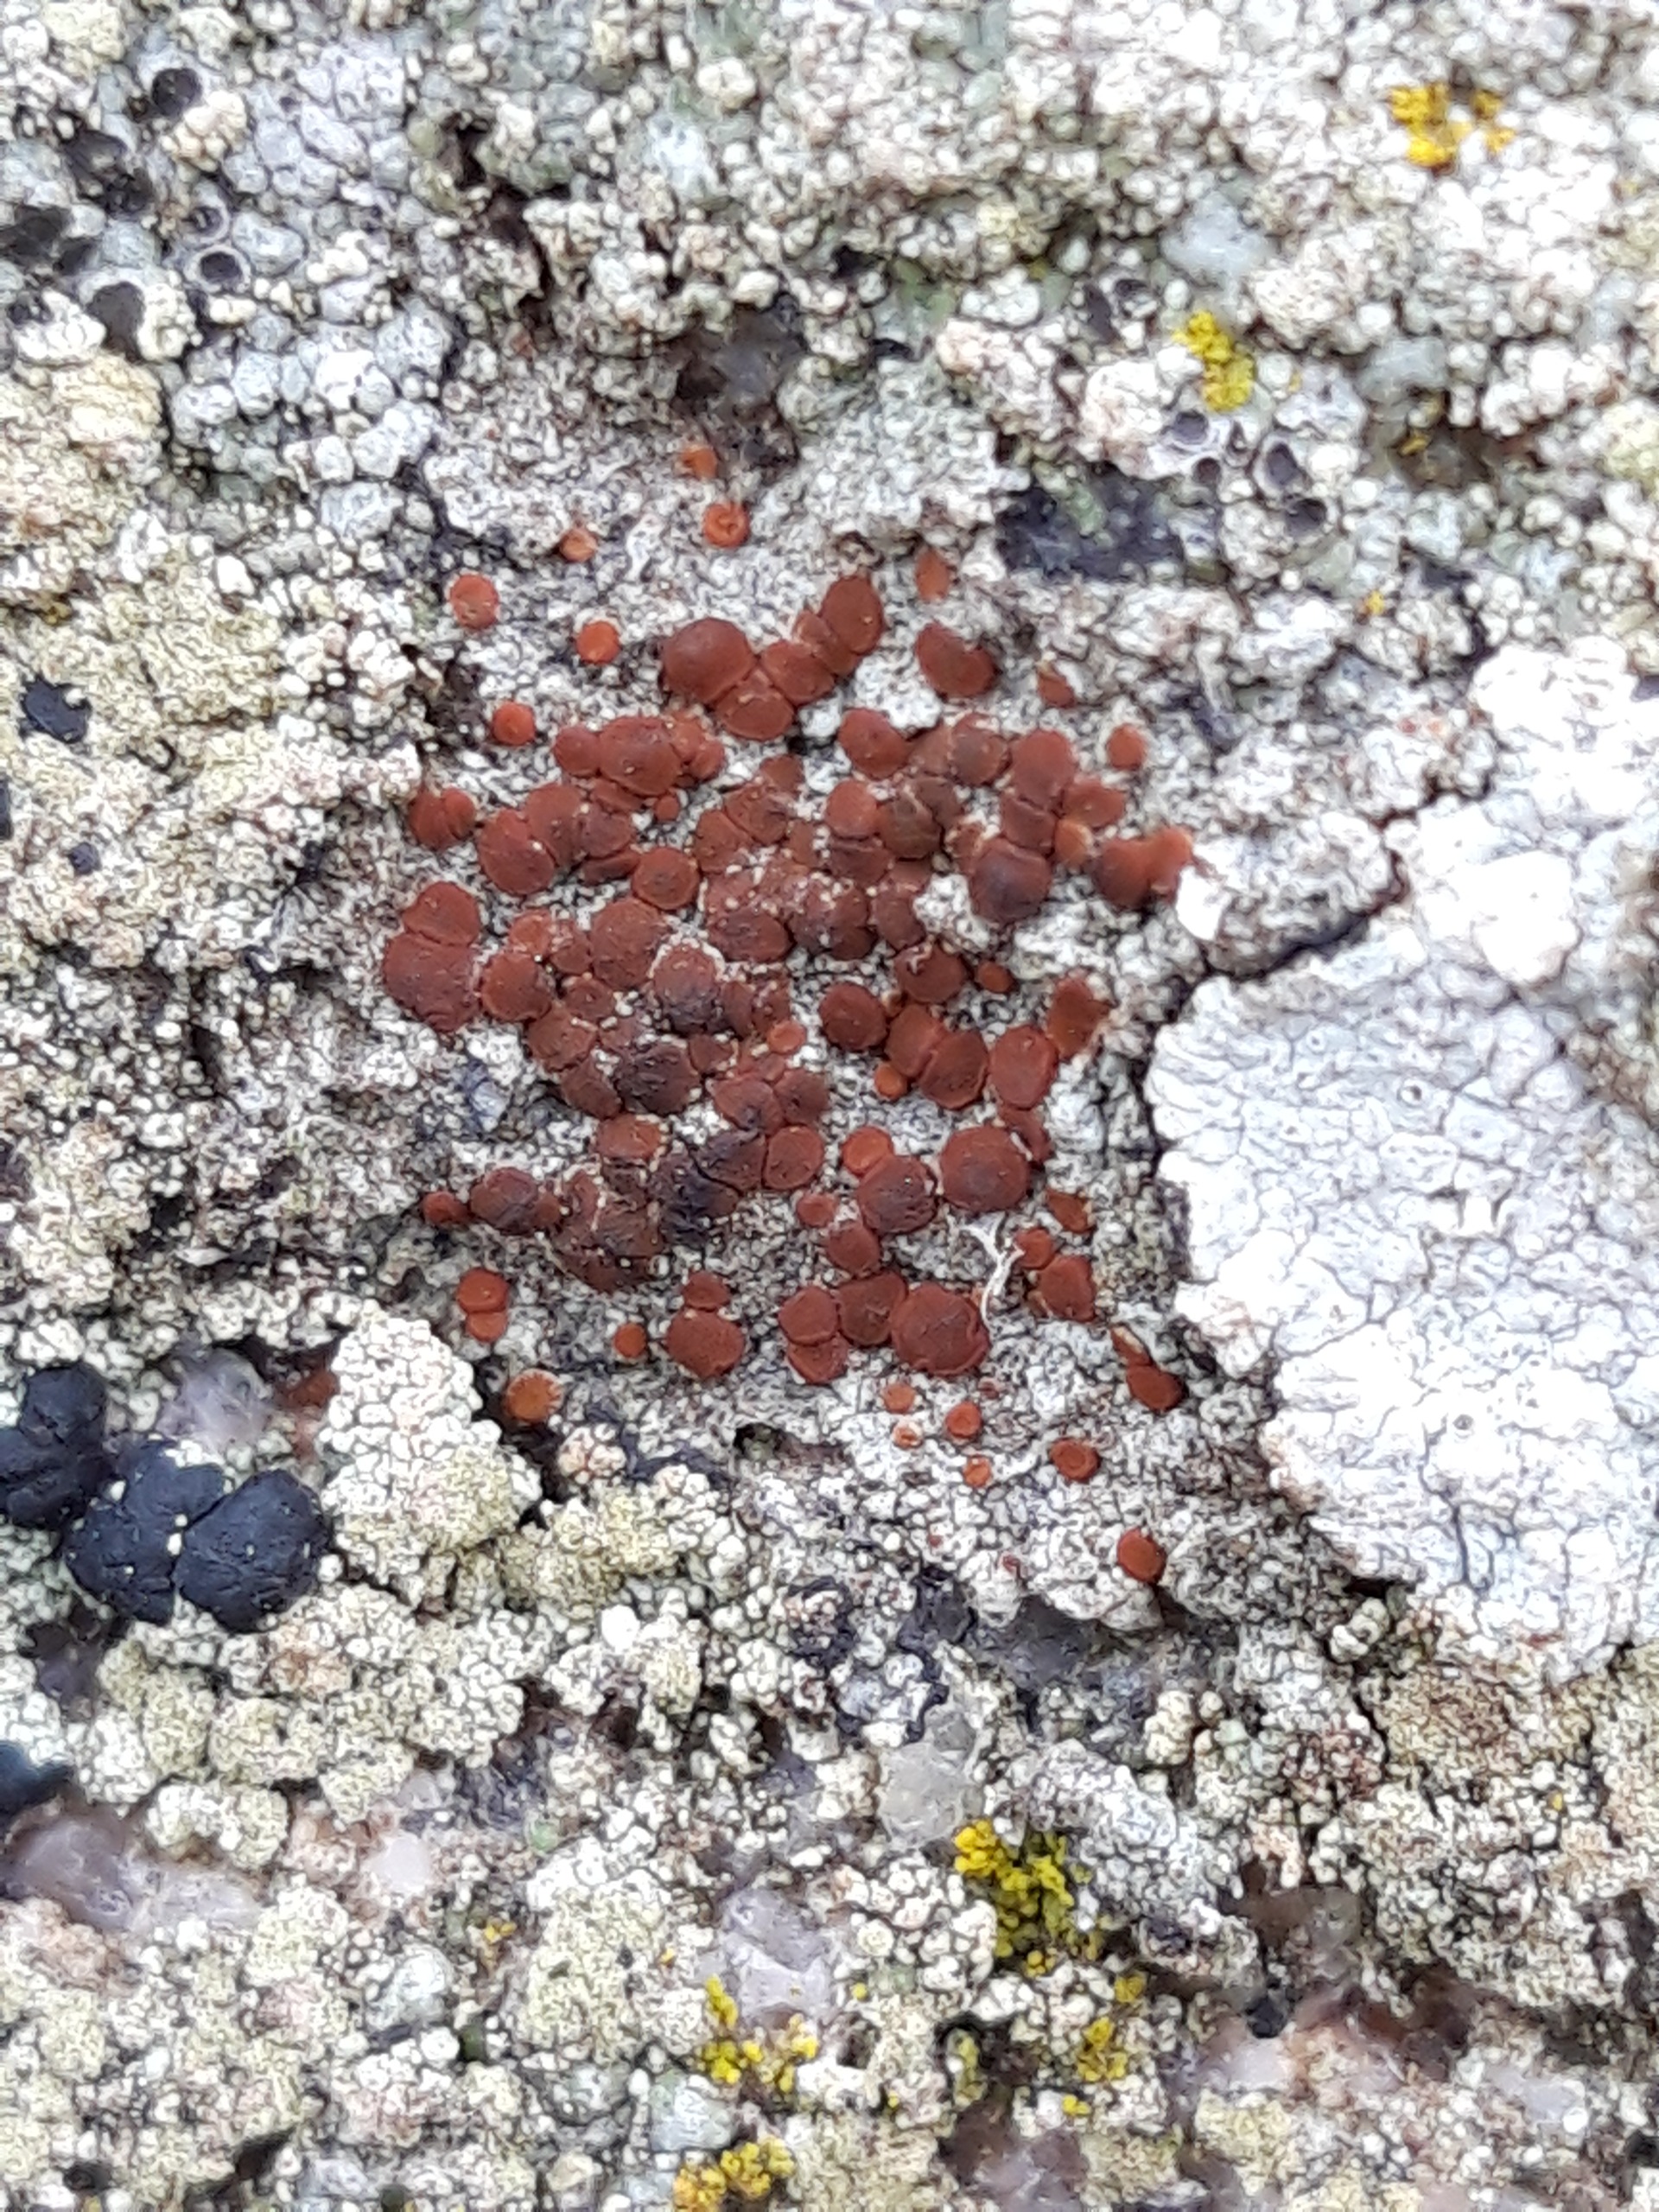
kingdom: Fungi
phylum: Ascomycota
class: Lecanoromycetes
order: Teloschistales
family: Teloschistaceae
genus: Blastenia
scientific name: Blastenia crenularia
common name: Pyntelig orangelav
